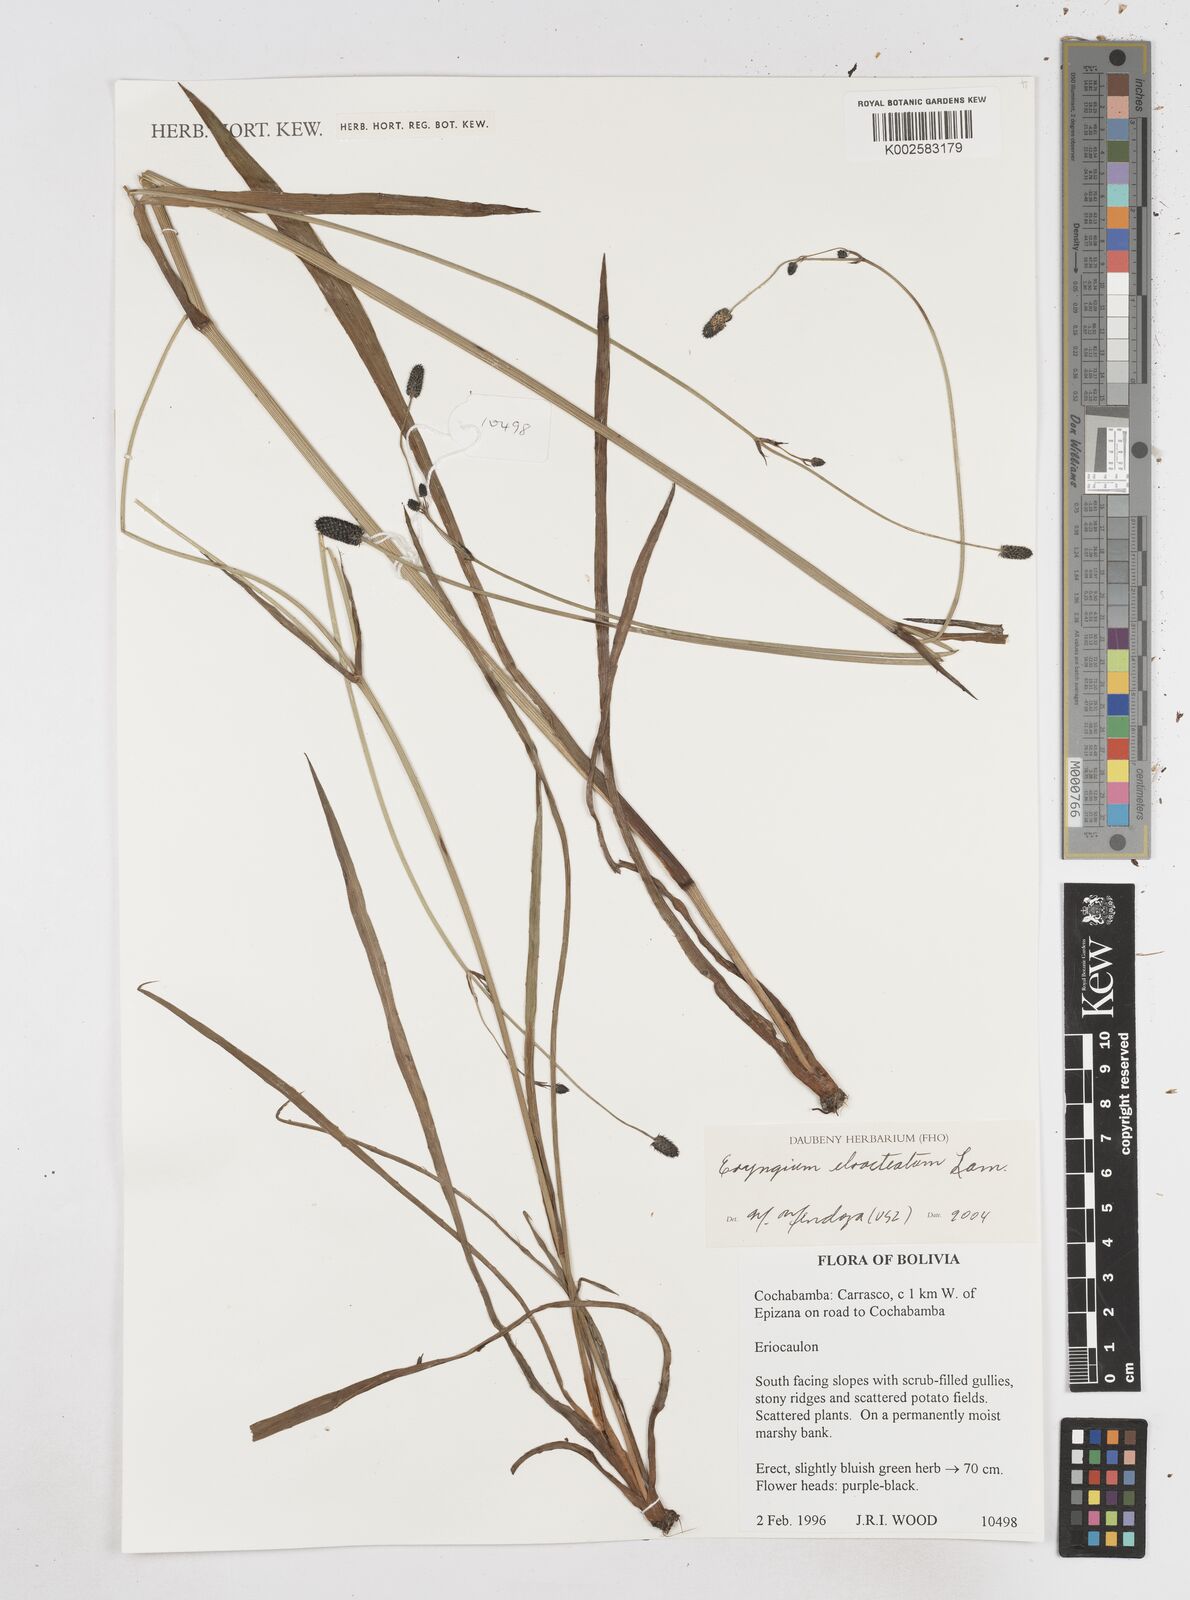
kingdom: Plantae
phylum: Tracheophyta
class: Magnoliopsida
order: Apiales
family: Apiaceae
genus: Eryngium
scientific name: Eryngium ebracteatum
